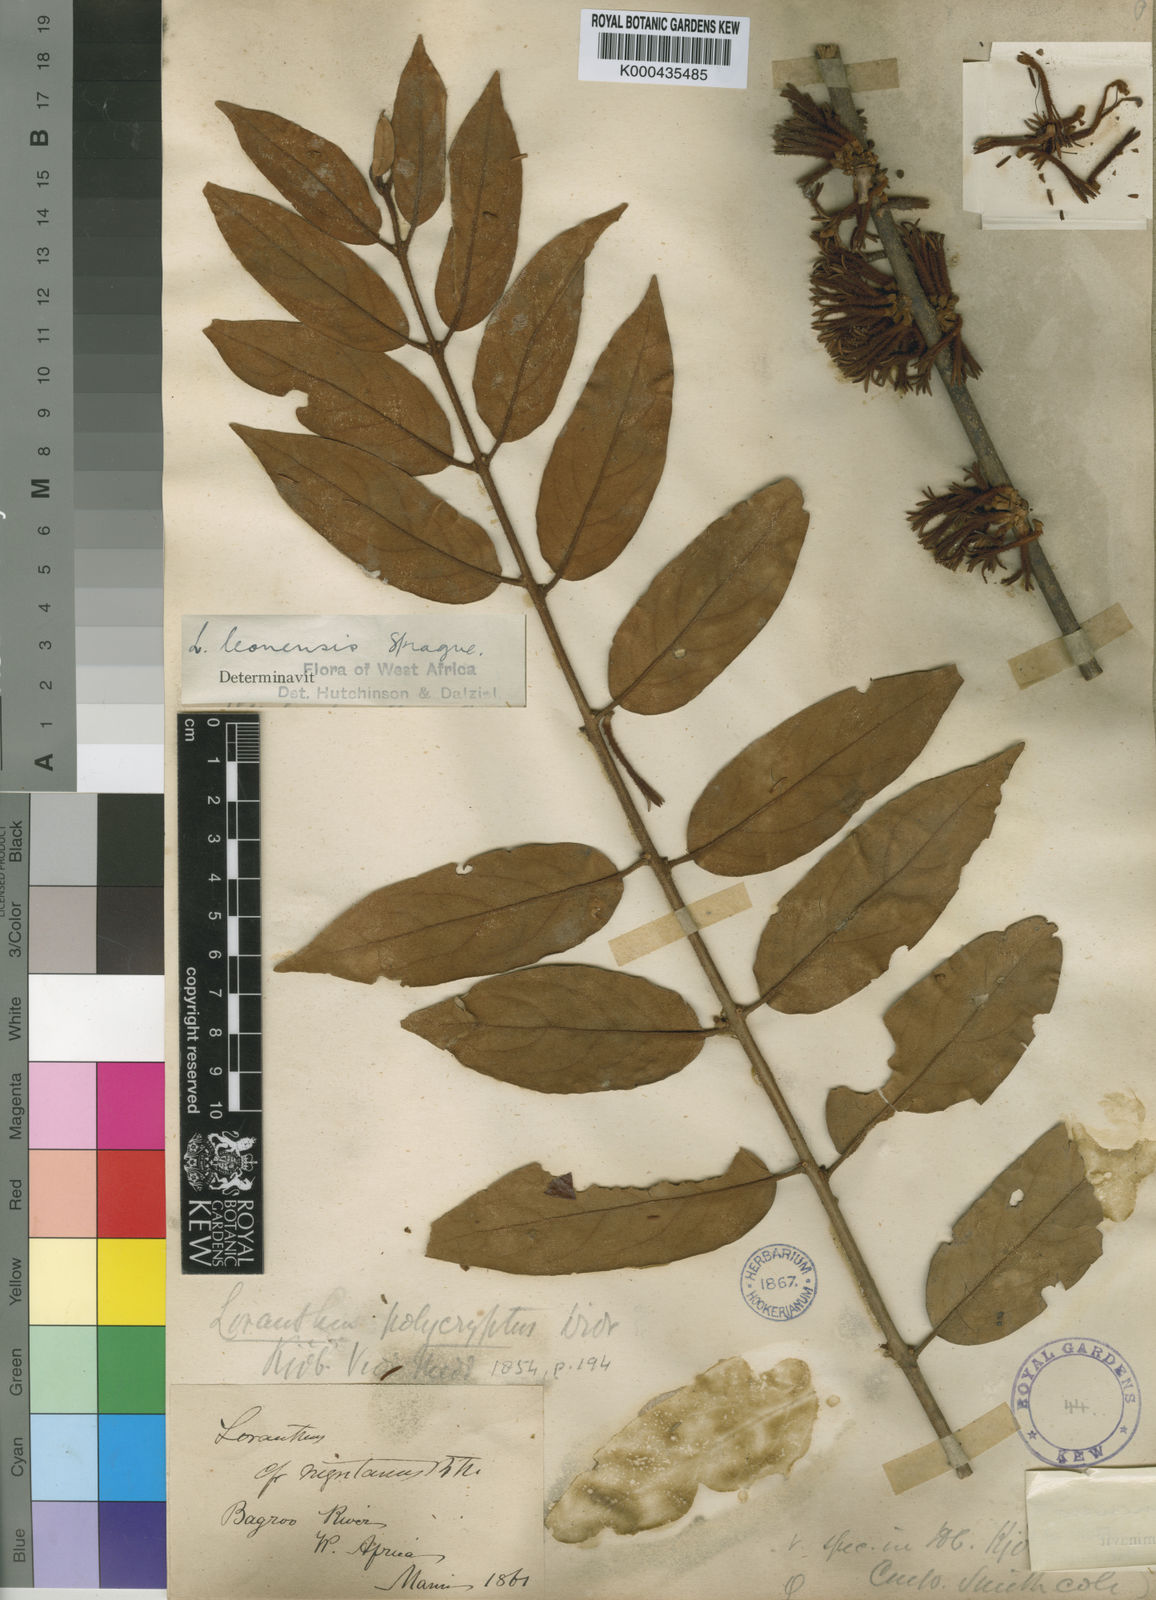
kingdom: Plantae
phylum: Tracheophyta
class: Magnoliopsida
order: Santalales
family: Loranthaceae
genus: Phragmanthera
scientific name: Phragmanthera leonensis
